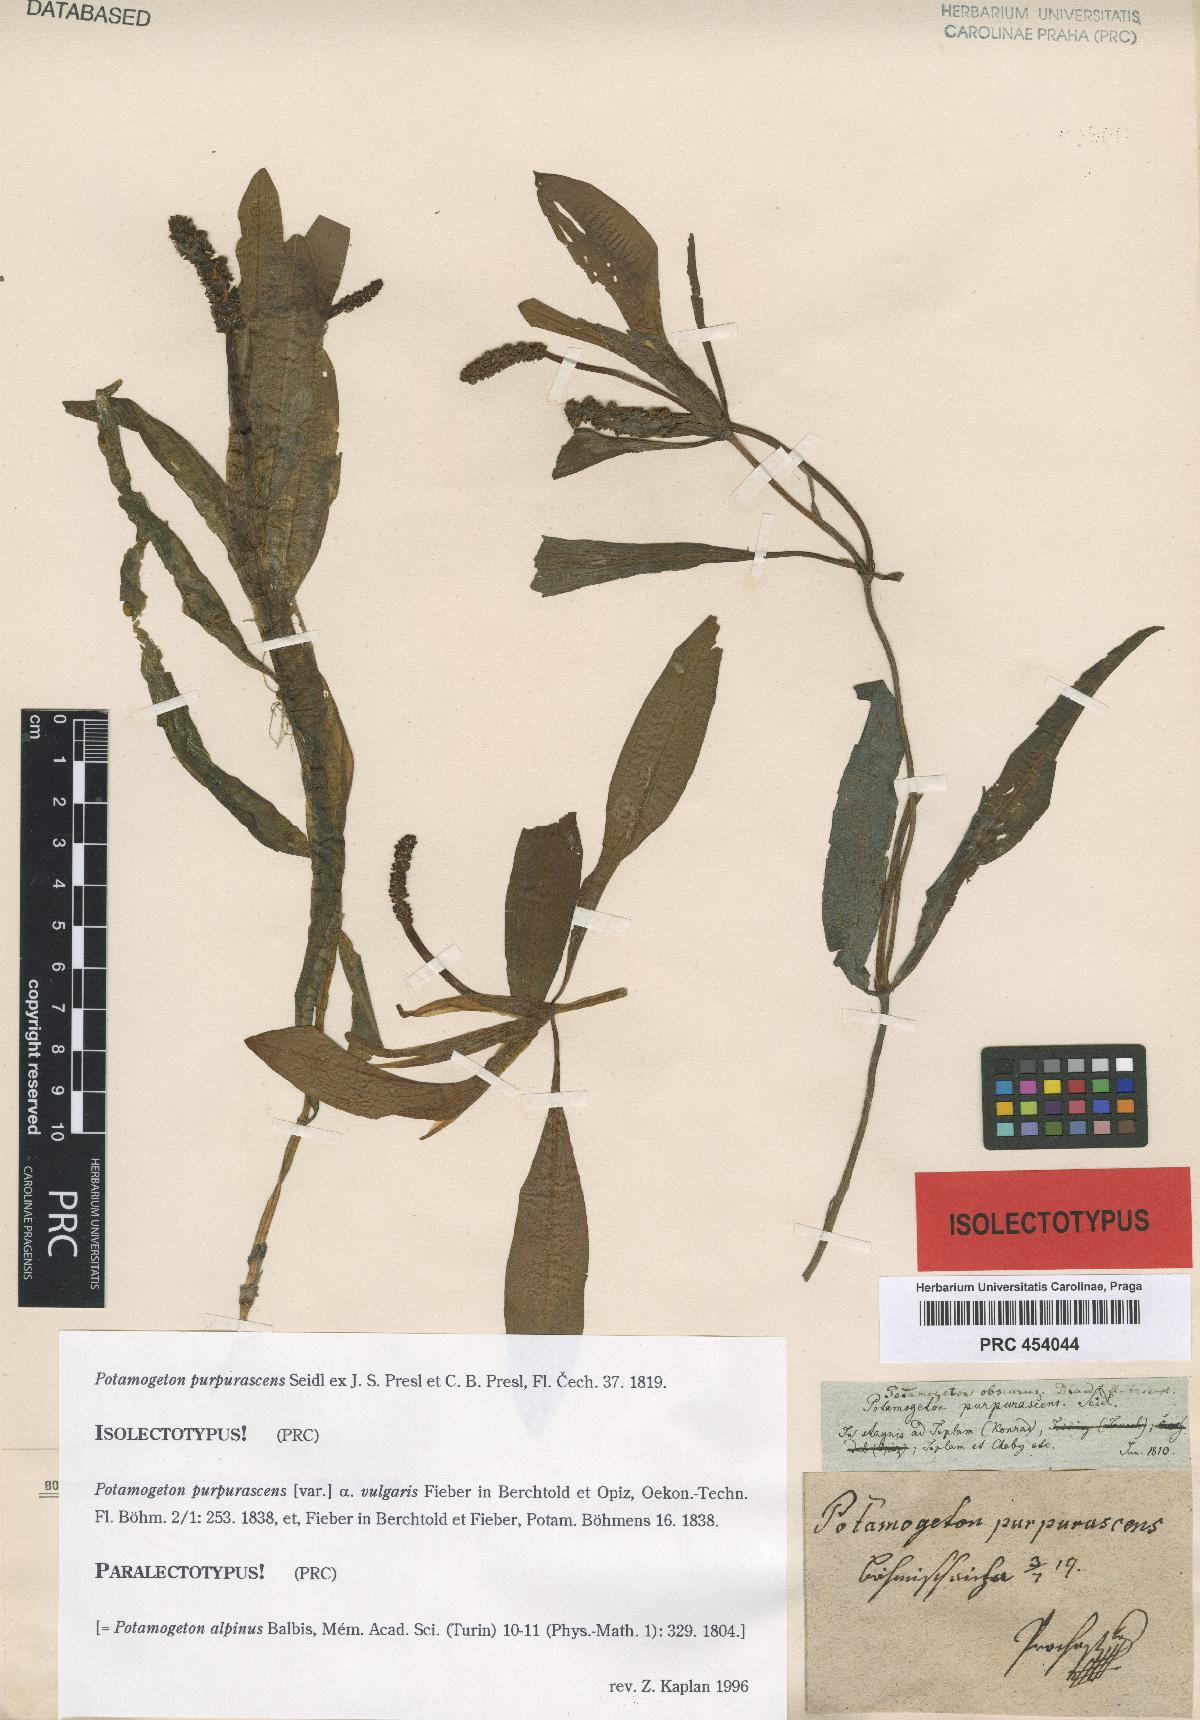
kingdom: Plantae
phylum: Tracheophyta
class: Liliopsida
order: Alismatales
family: Potamogetonaceae
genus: Potamogeton
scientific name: Potamogeton alpinus
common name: Red pondweed
